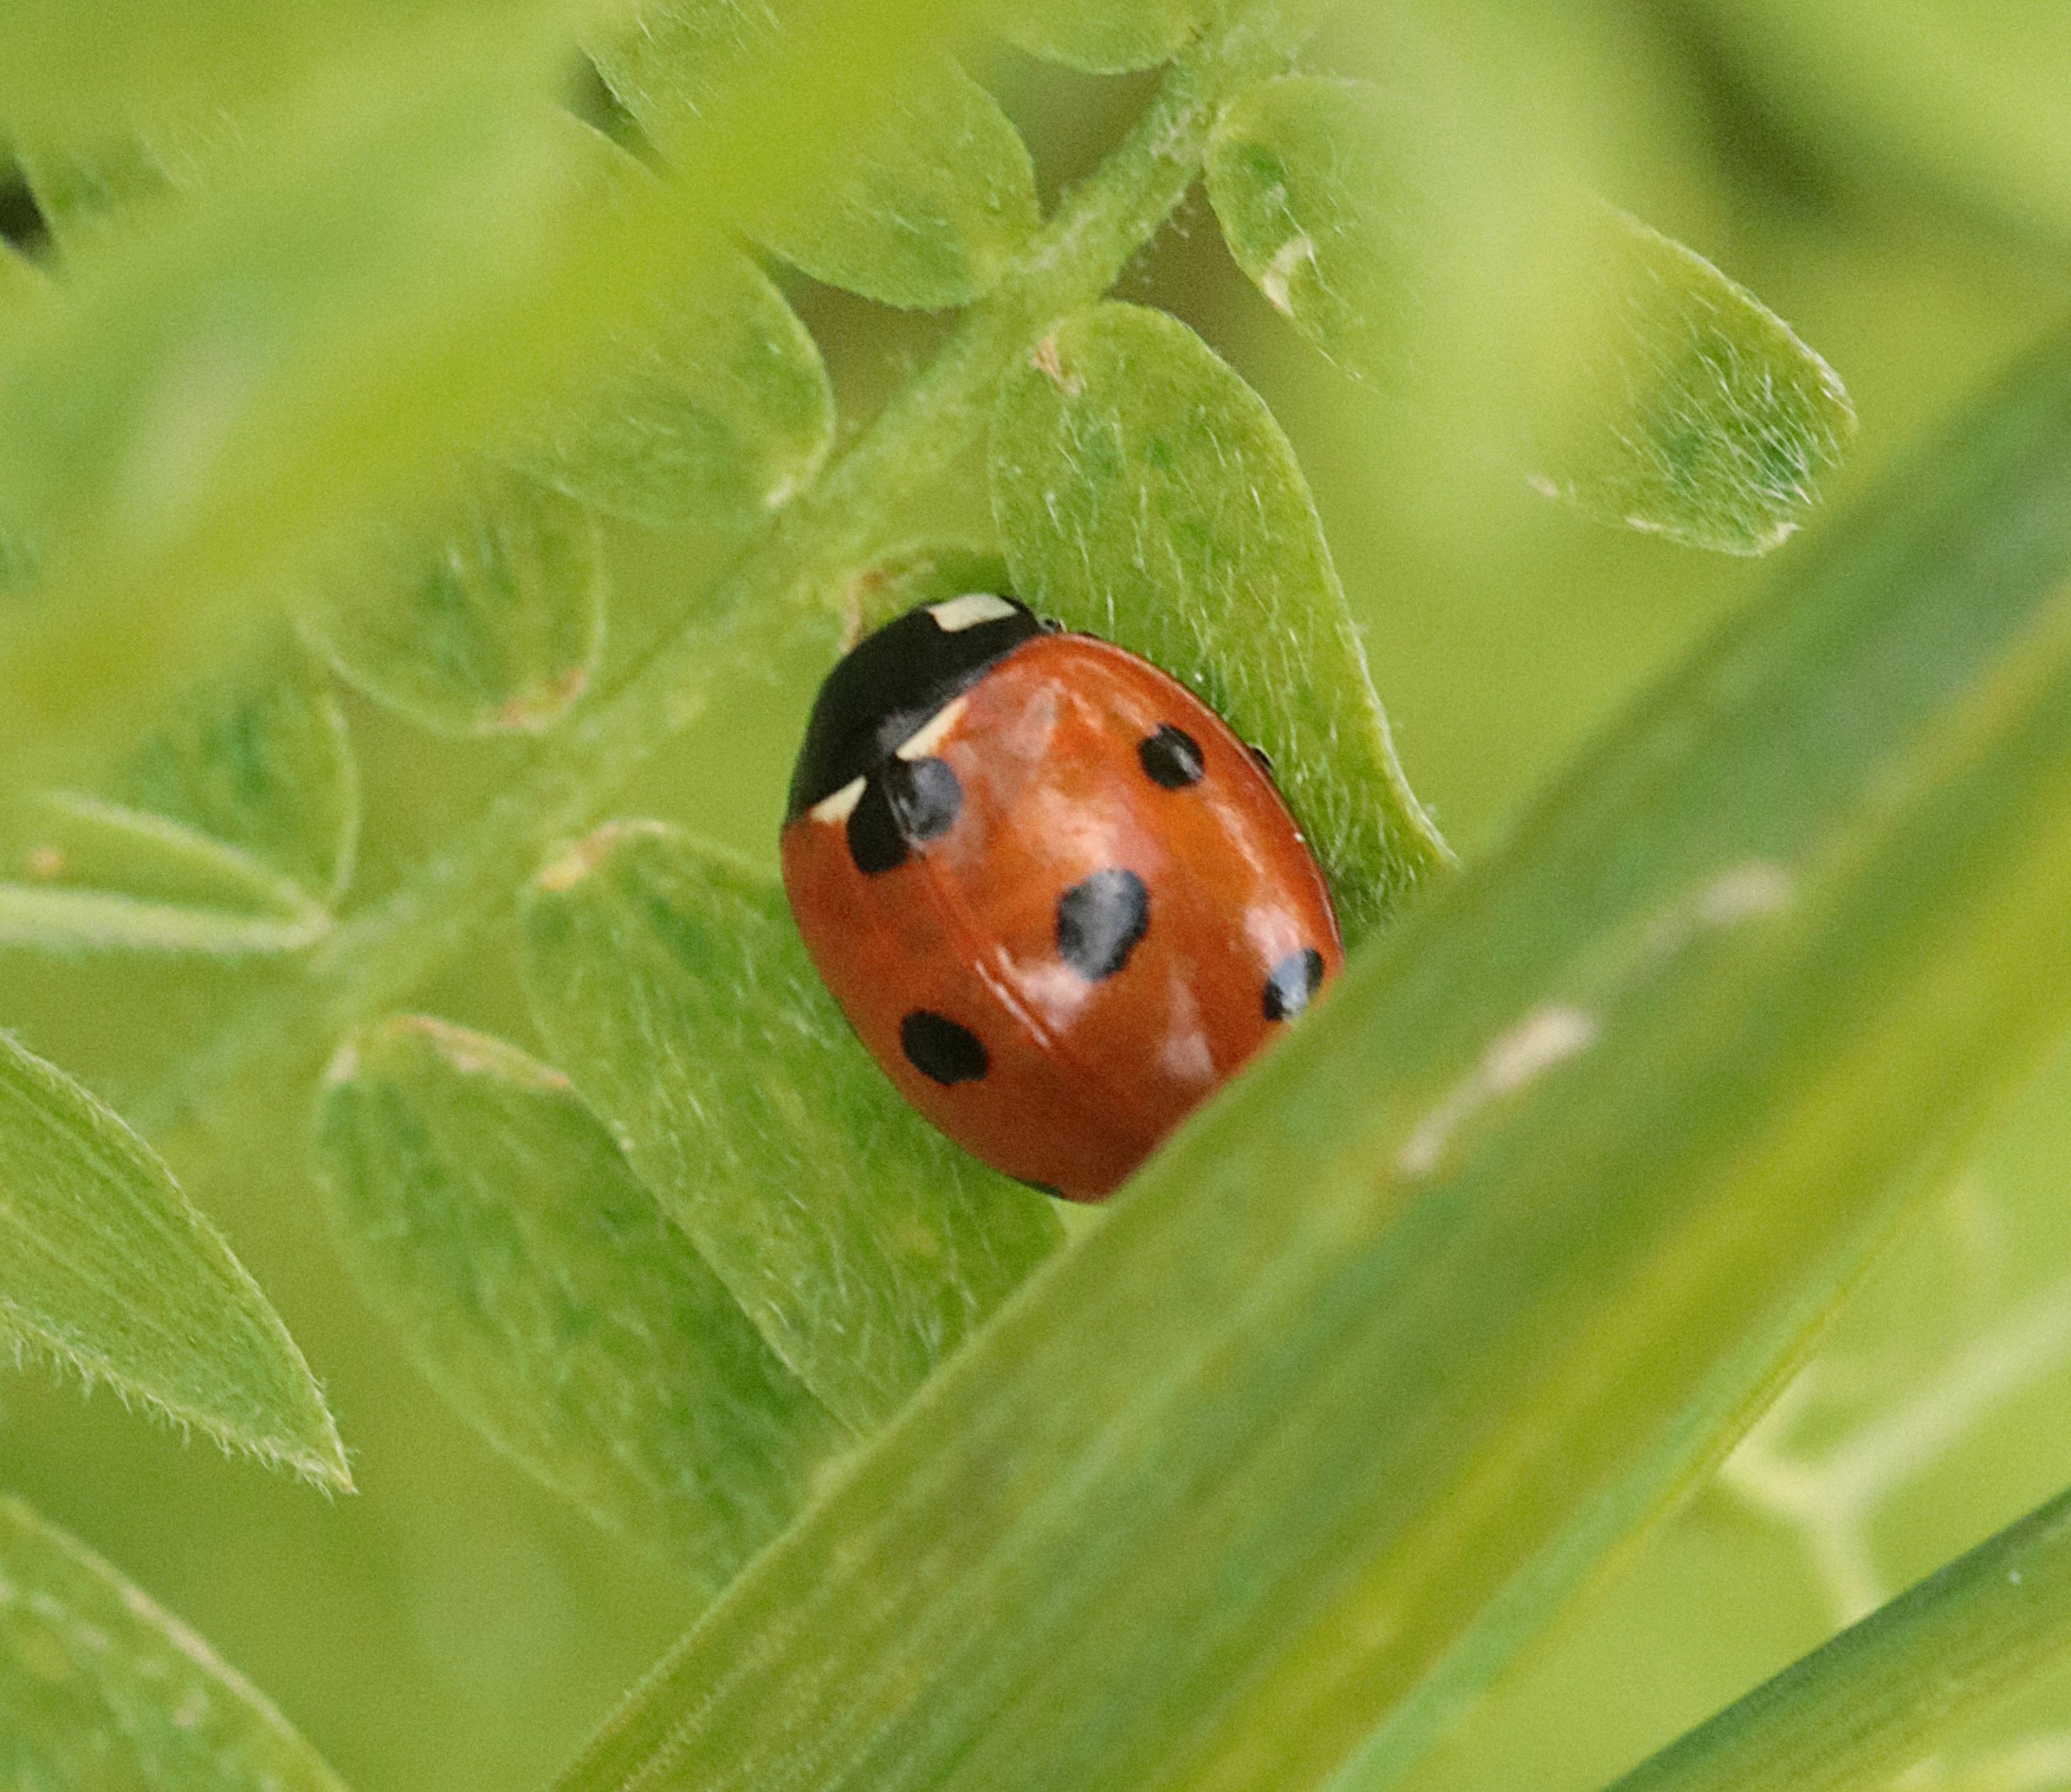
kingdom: Animalia
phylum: Arthropoda
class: Insecta
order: Coleoptera
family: Coccinellidae
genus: Coccinella
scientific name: Coccinella septempunctata
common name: Syvplettet mariehøne
